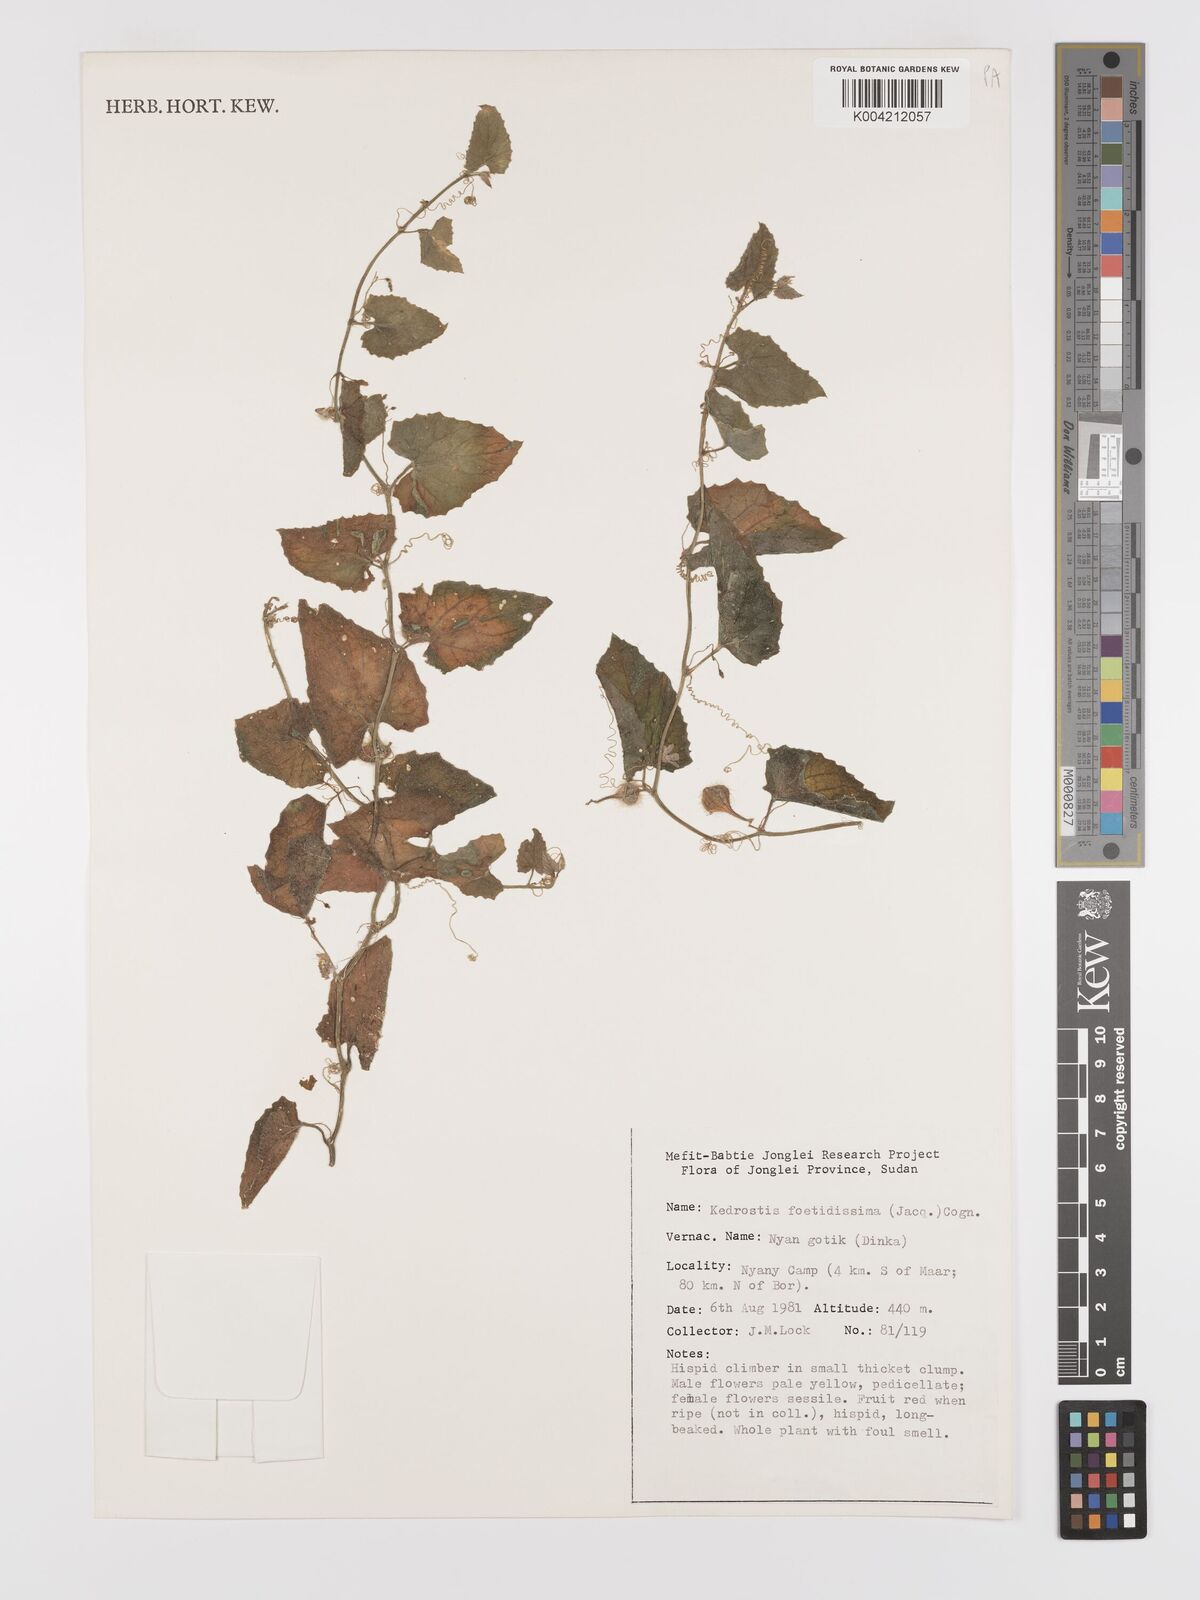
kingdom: Plantae
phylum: Tracheophyta
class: Magnoliopsida
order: Cucurbitales
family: Cucurbitaceae
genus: Kedrostis
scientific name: Kedrostis foetidissima
